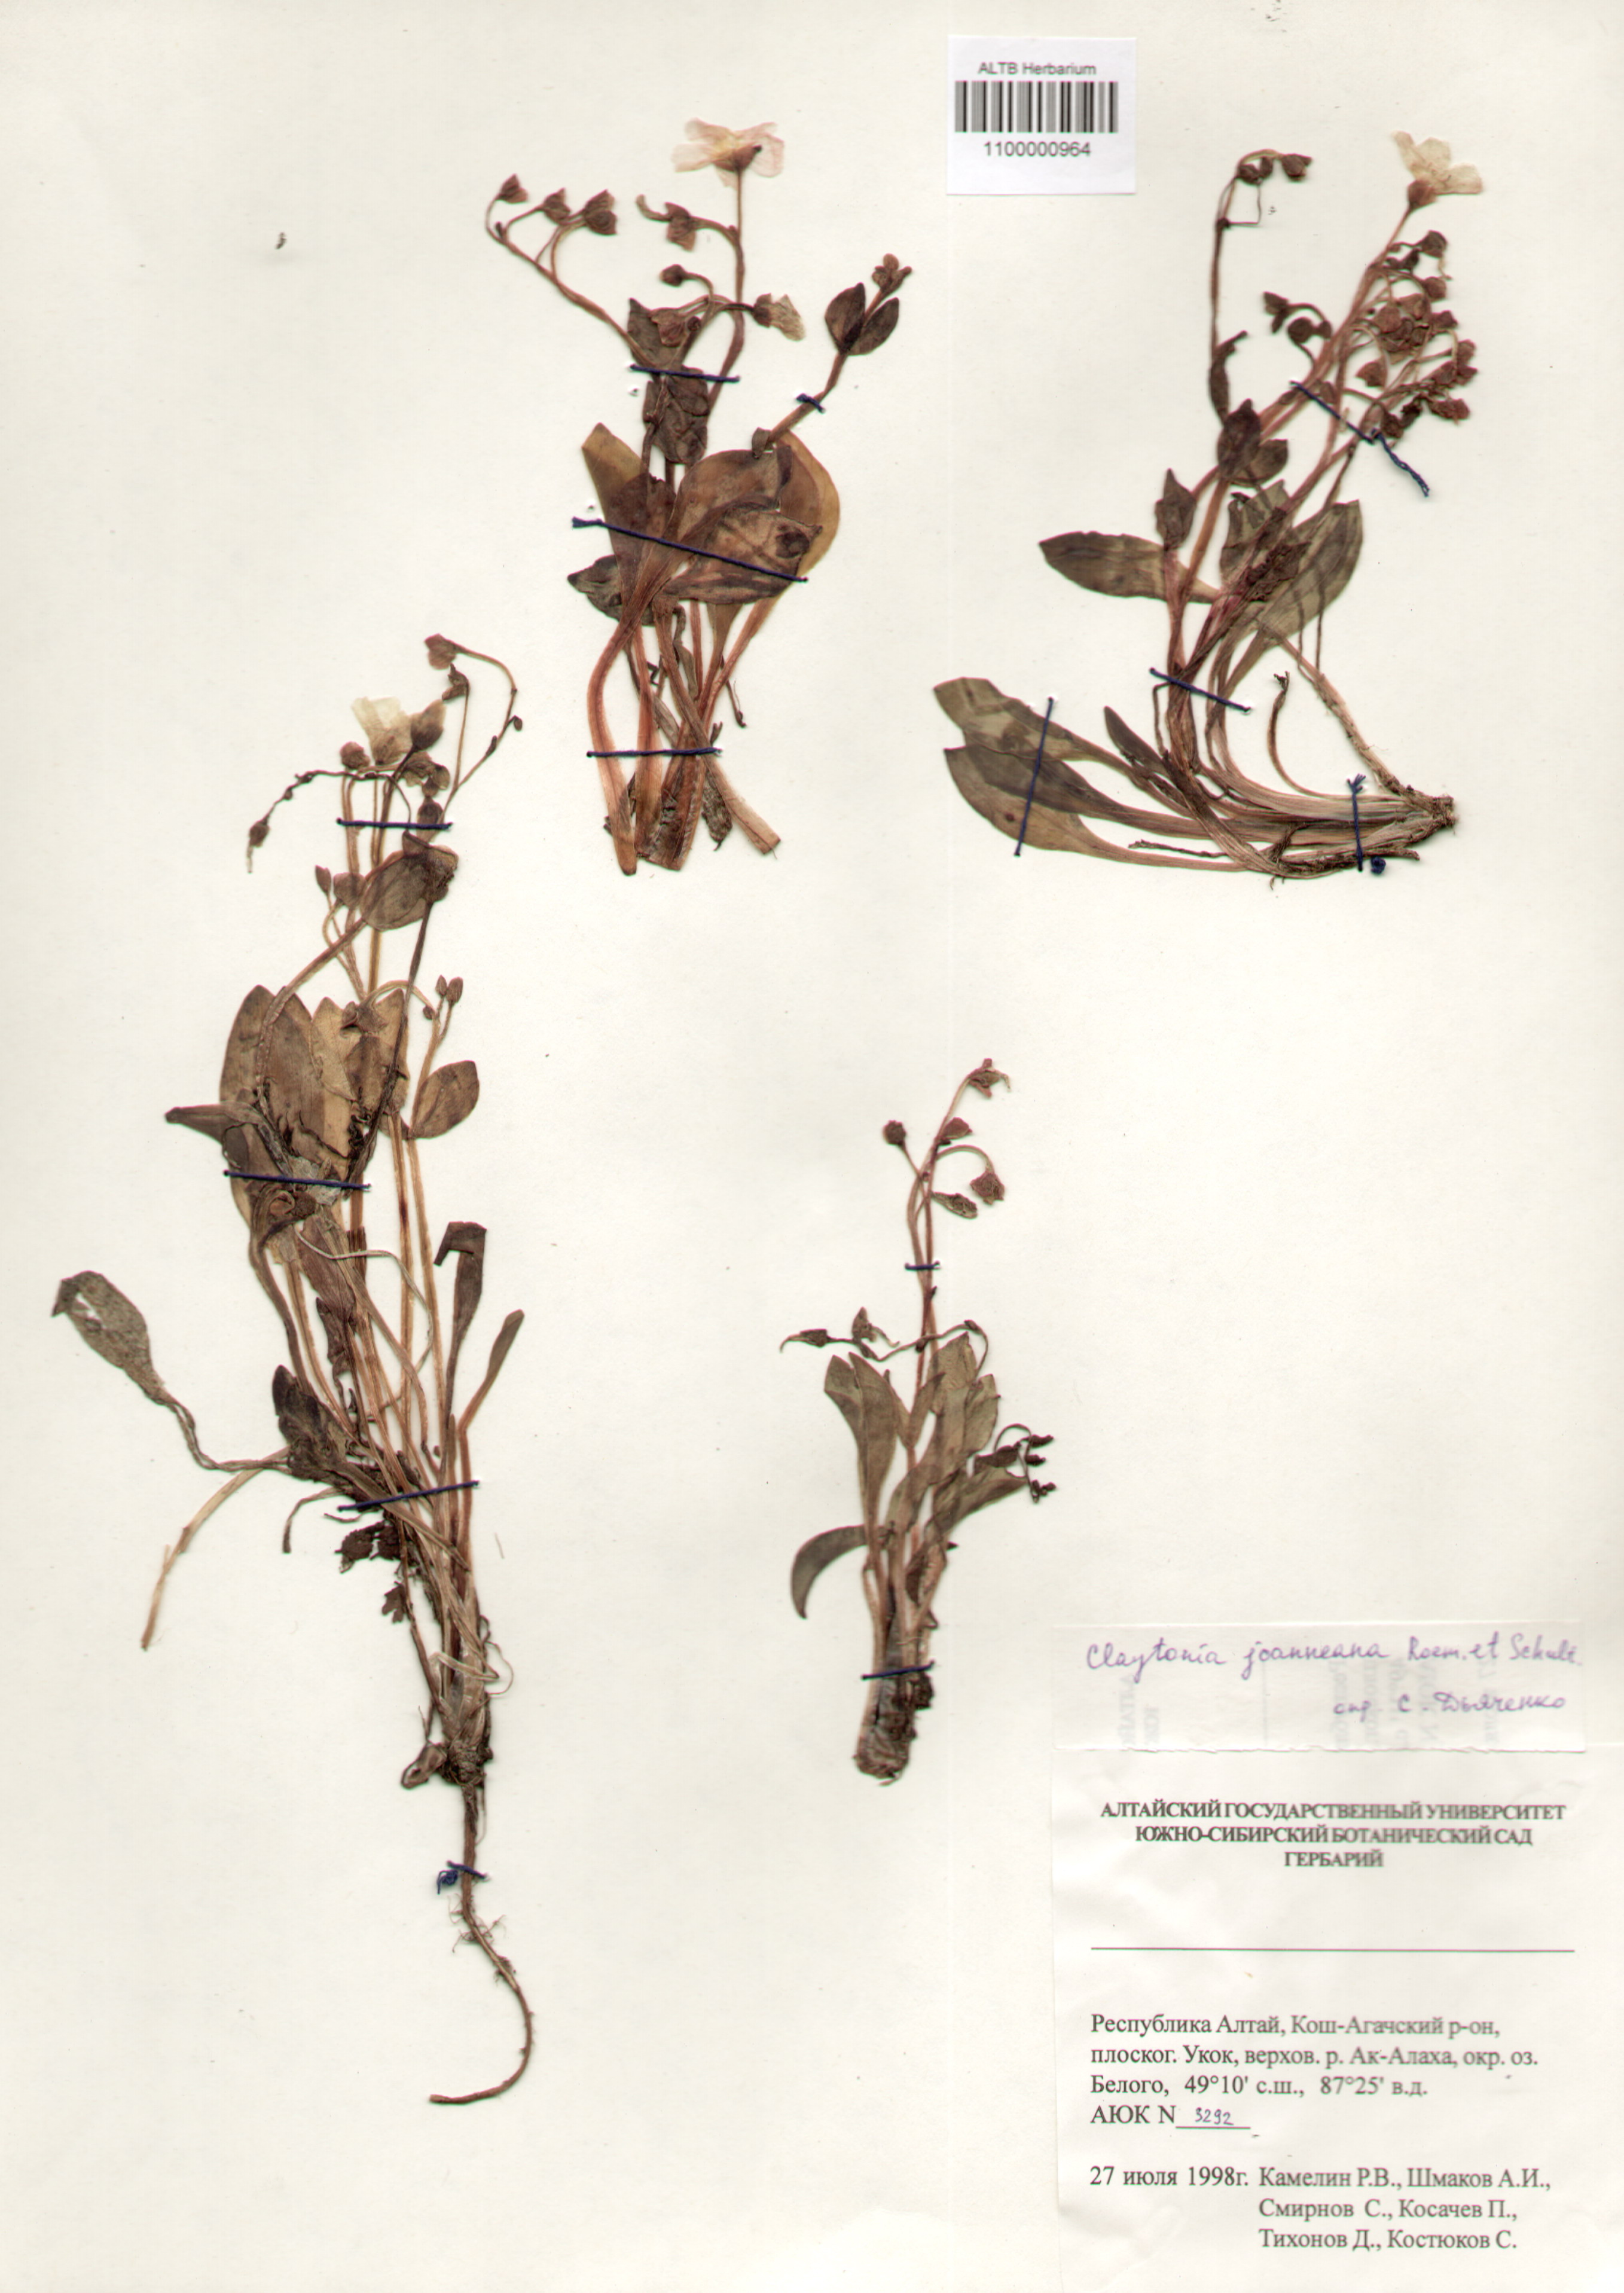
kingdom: Plantae
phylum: Tracheophyta
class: Magnoliopsida
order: Caryophyllales
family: Montiaceae
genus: Claytonia
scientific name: Claytonia joanneana
